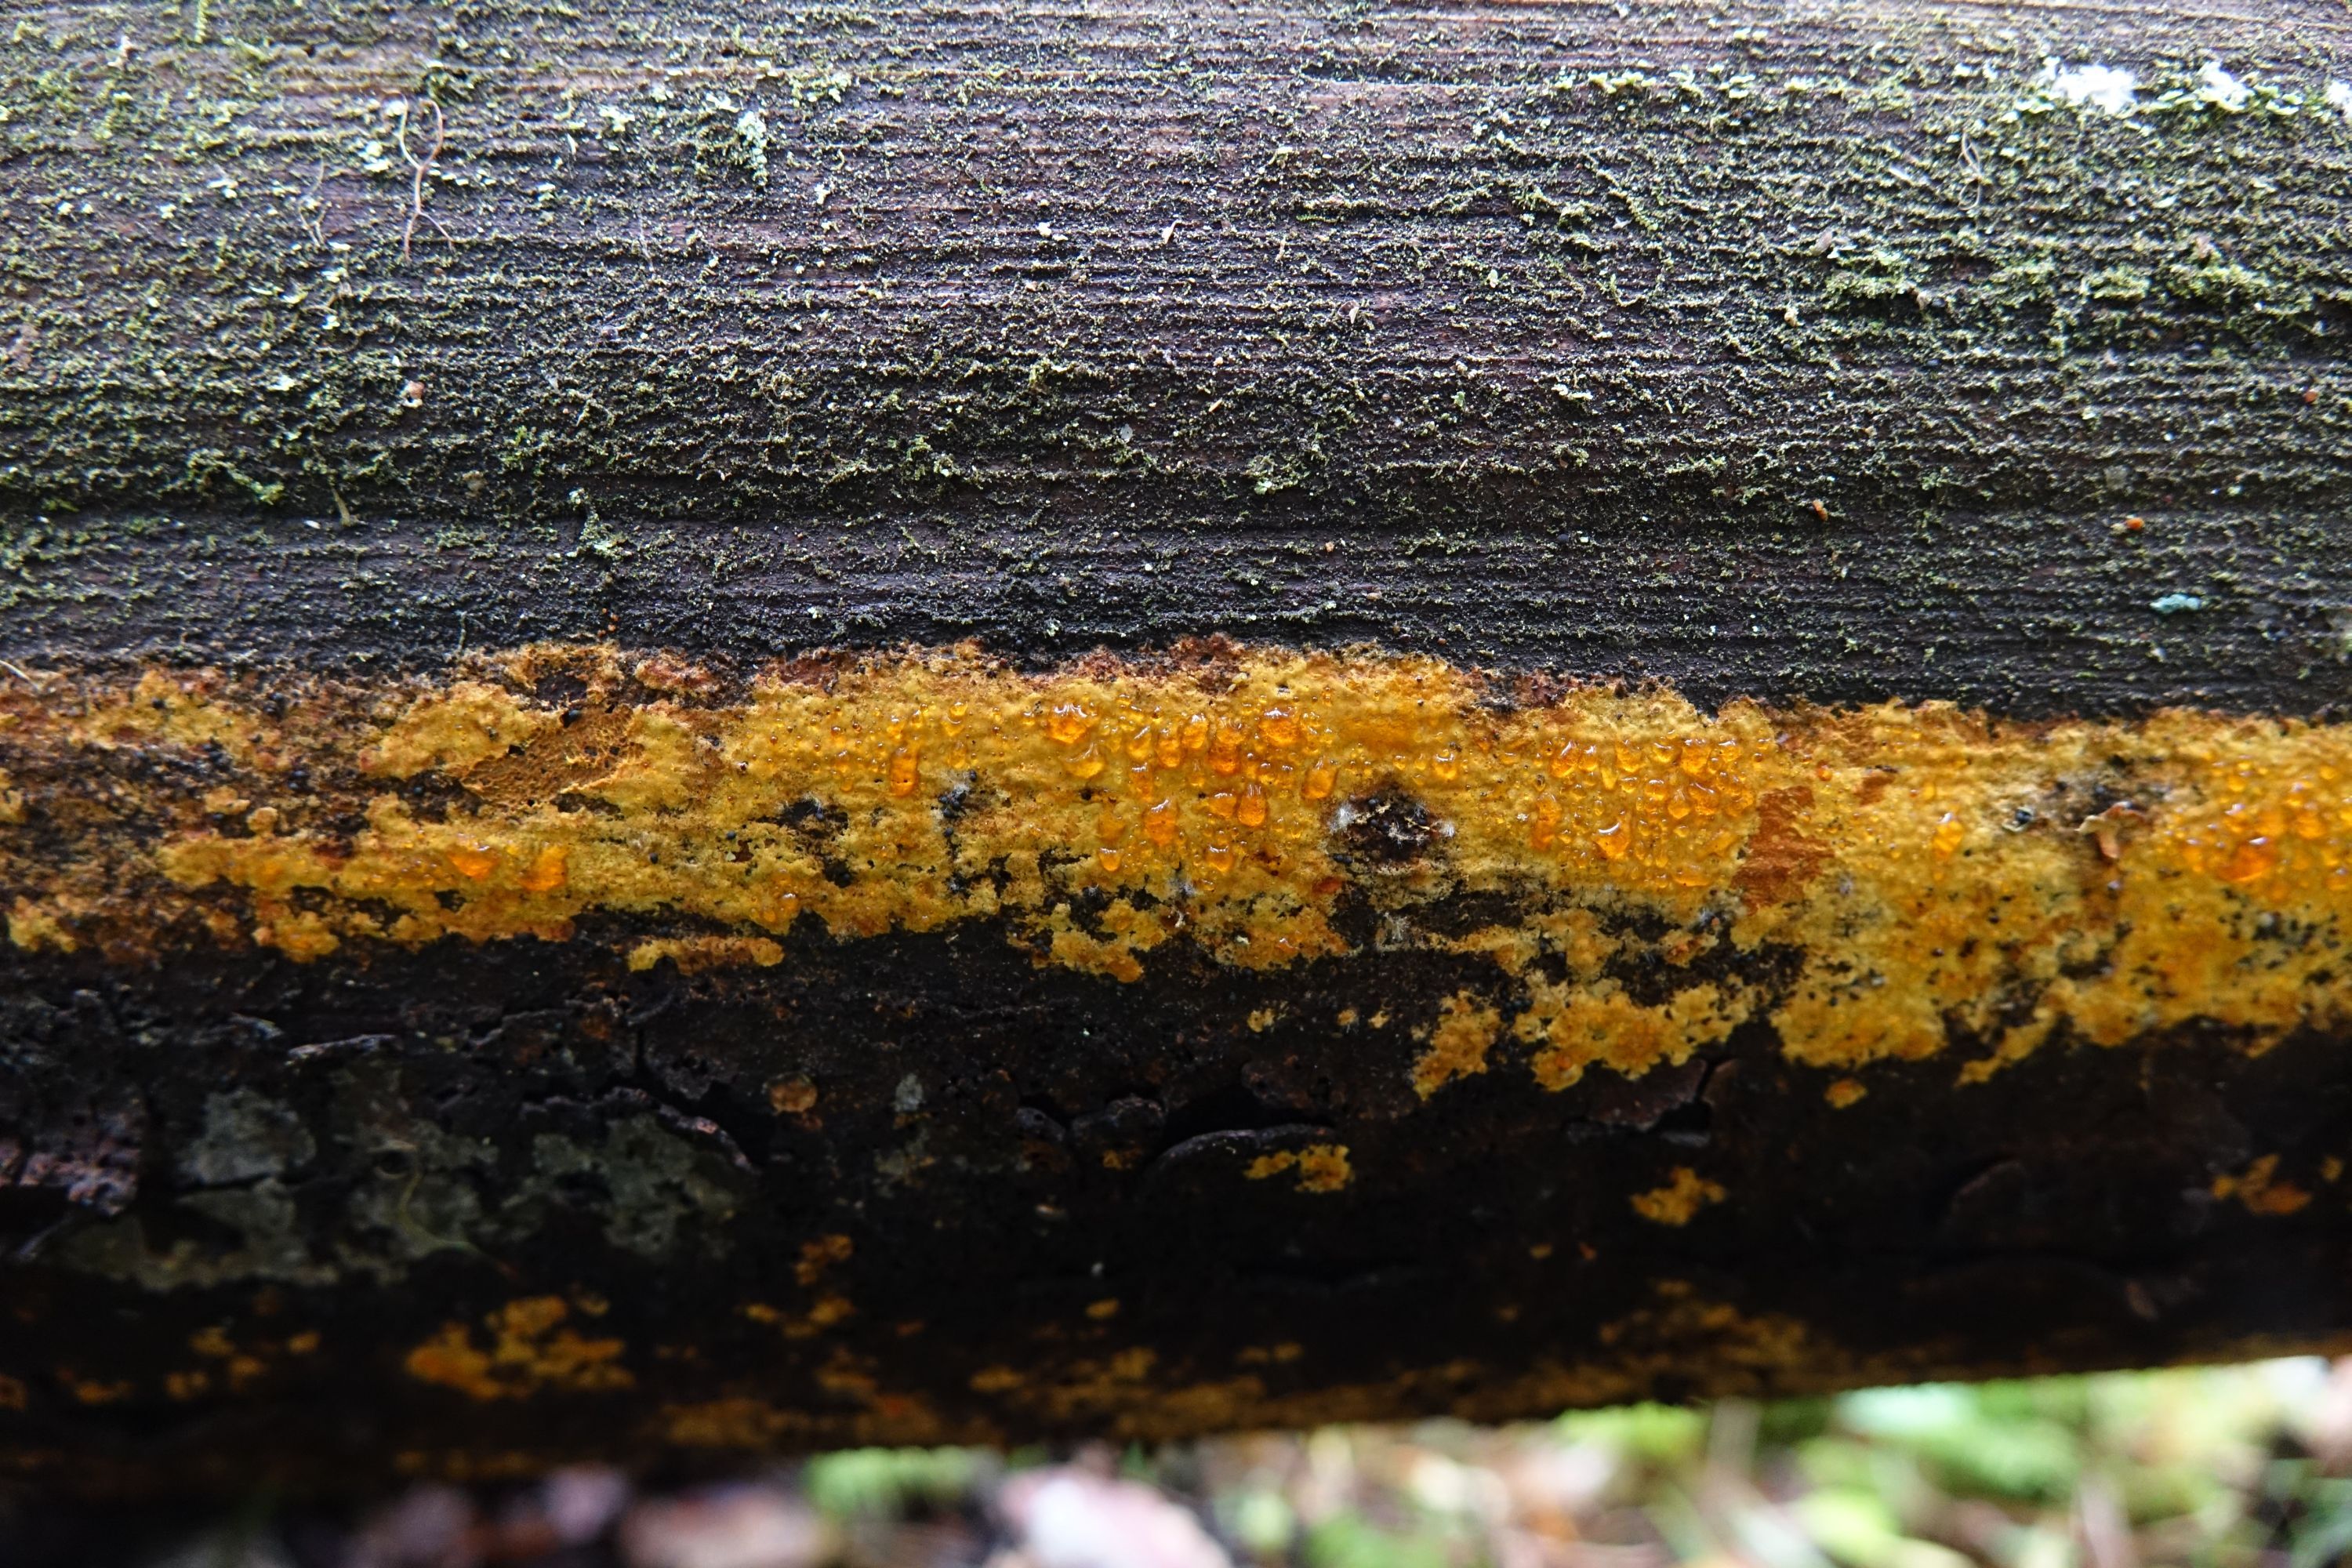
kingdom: Fungi
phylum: Basidiomycota
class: Agaricomycetes
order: Polyporales
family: Sparassidaceae
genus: Crustoderma
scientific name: Crustoderma dryinum
